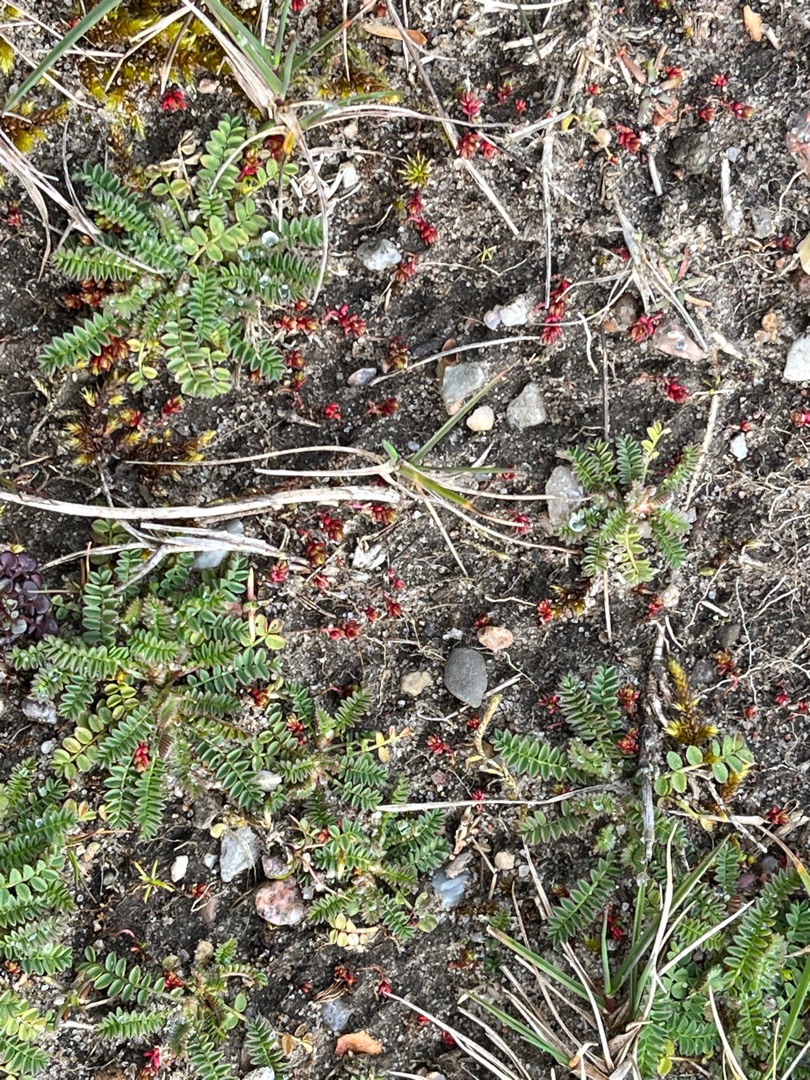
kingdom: Plantae
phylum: Tracheophyta
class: Magnoliopsida
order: Saxifragales
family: Crassulaceae
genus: Crassula
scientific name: Crassula tillaea
